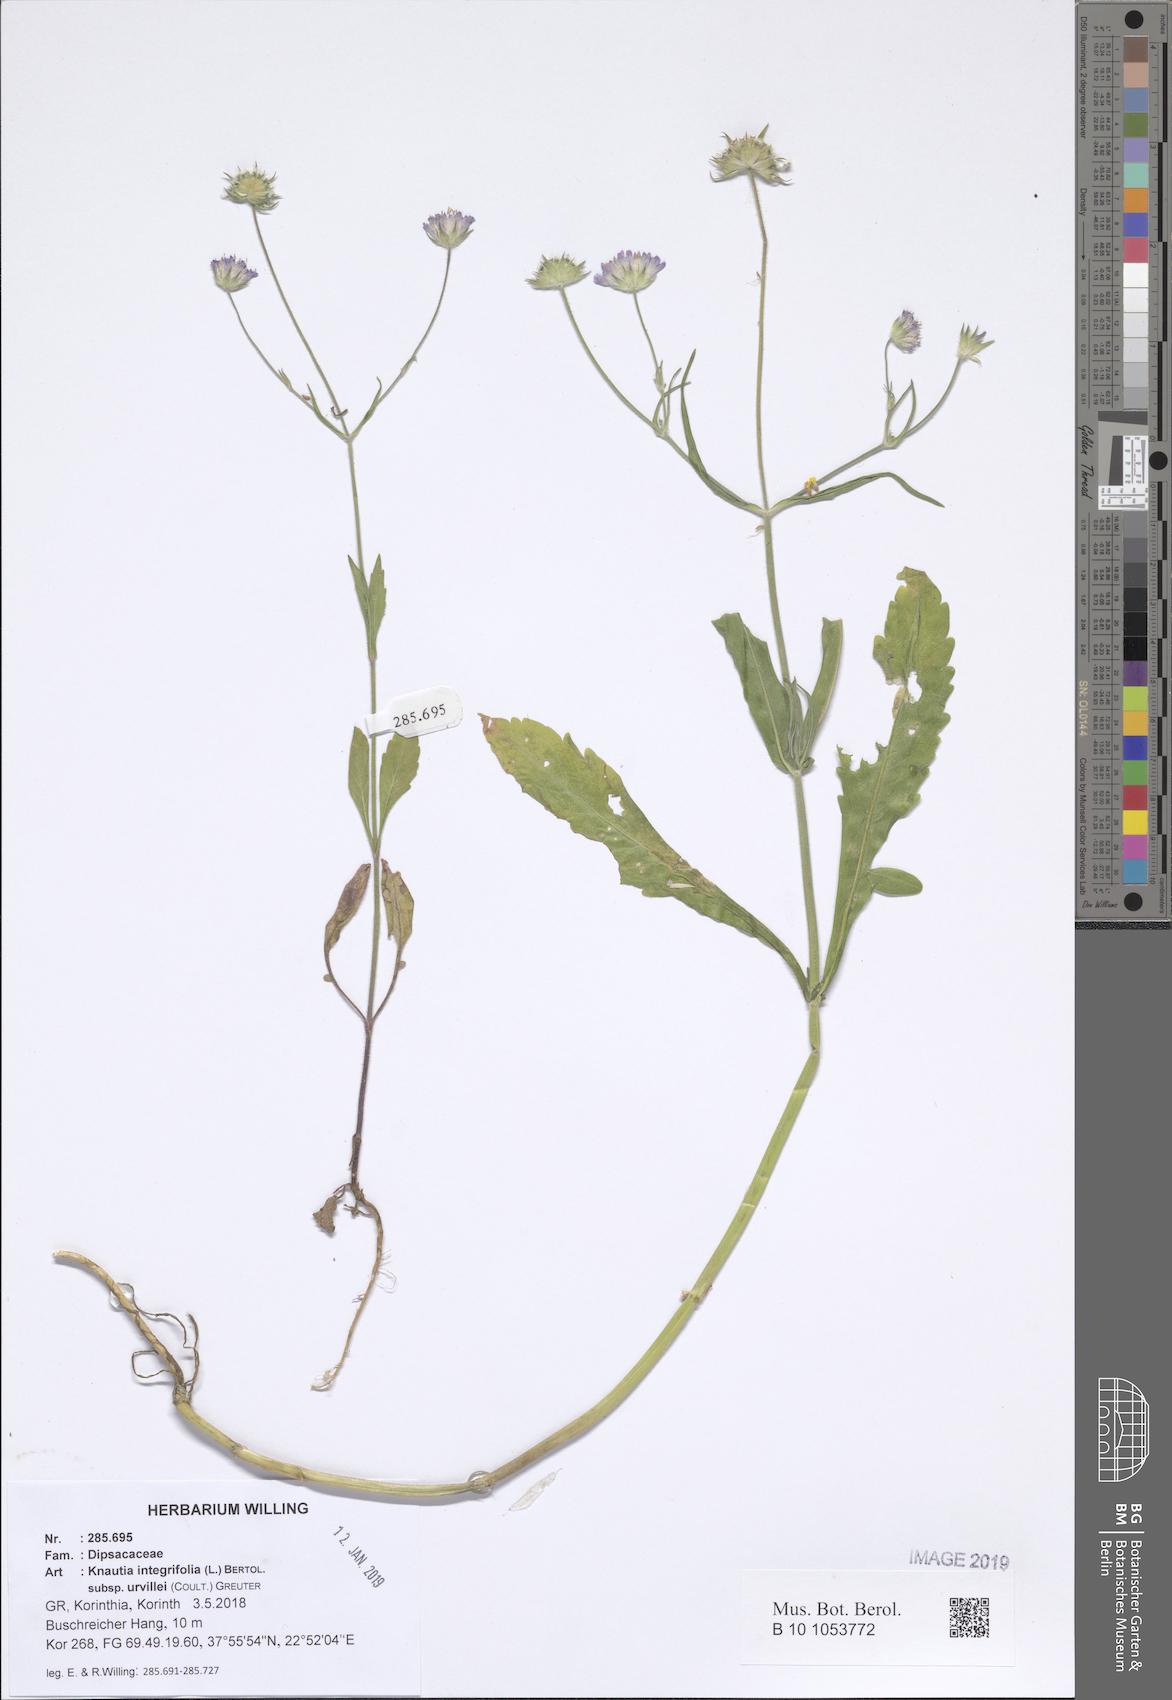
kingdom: Plantae
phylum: Tracheophyta
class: Magnoliopsida
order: Dipsacales
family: Caprifoliaceae
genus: Knautia
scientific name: Knautia integrifolia
